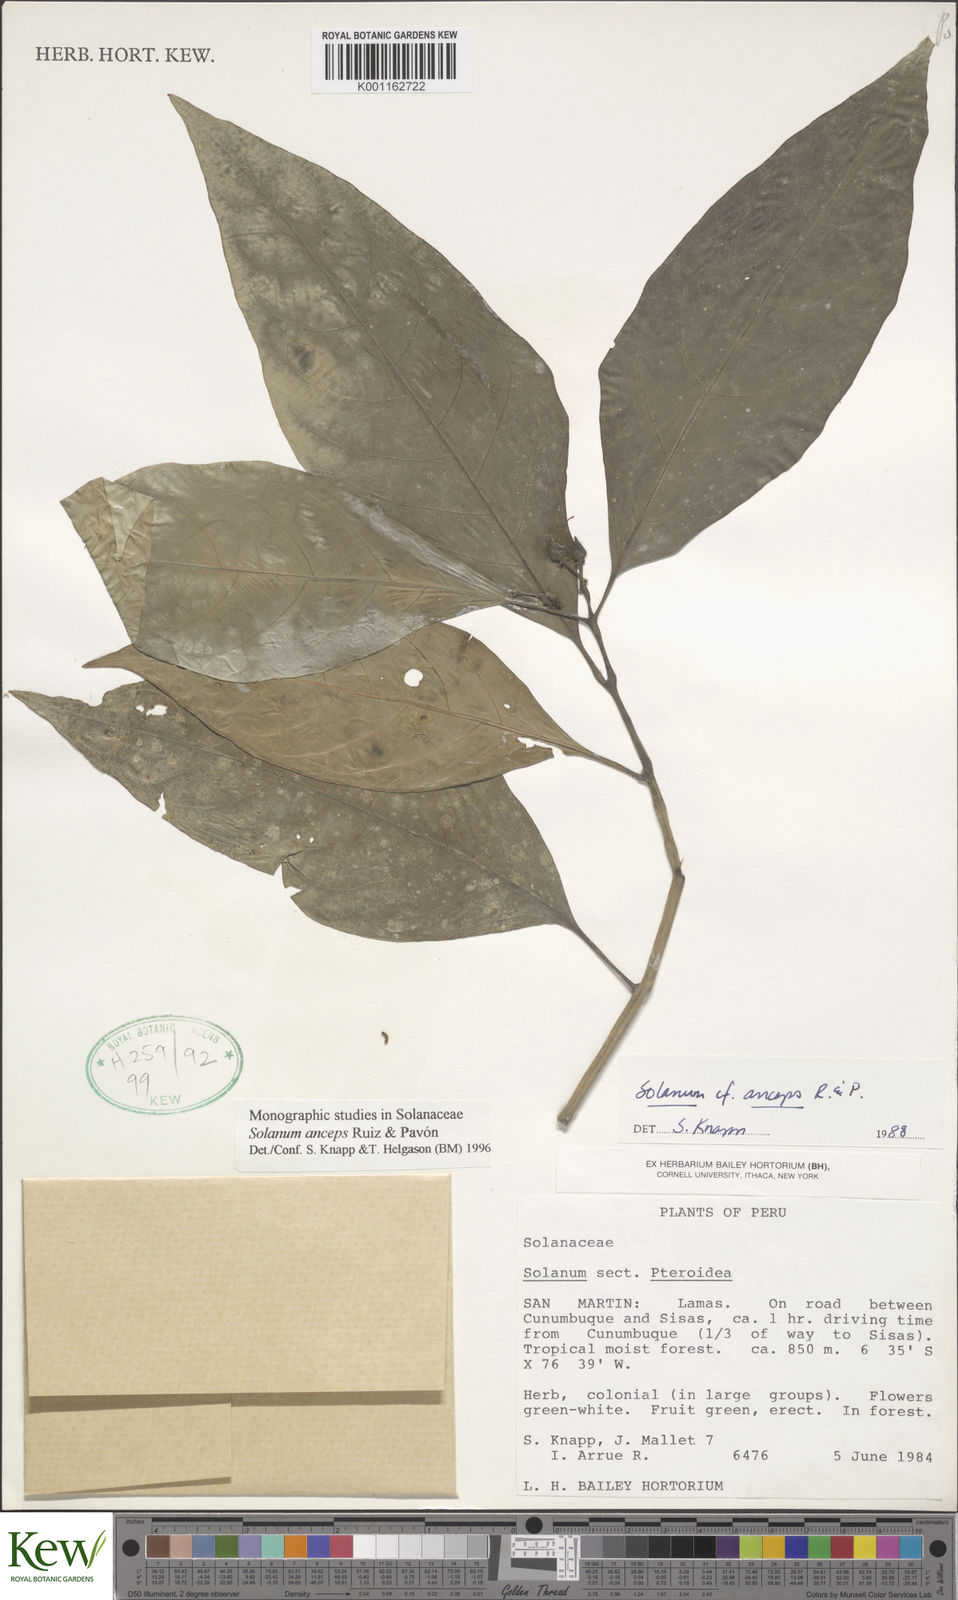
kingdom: Plantae
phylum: Tracheophyta
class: Magnoliopsida
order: Solanales
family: Solanaceae
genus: Solanum
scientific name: Solanum anceps
